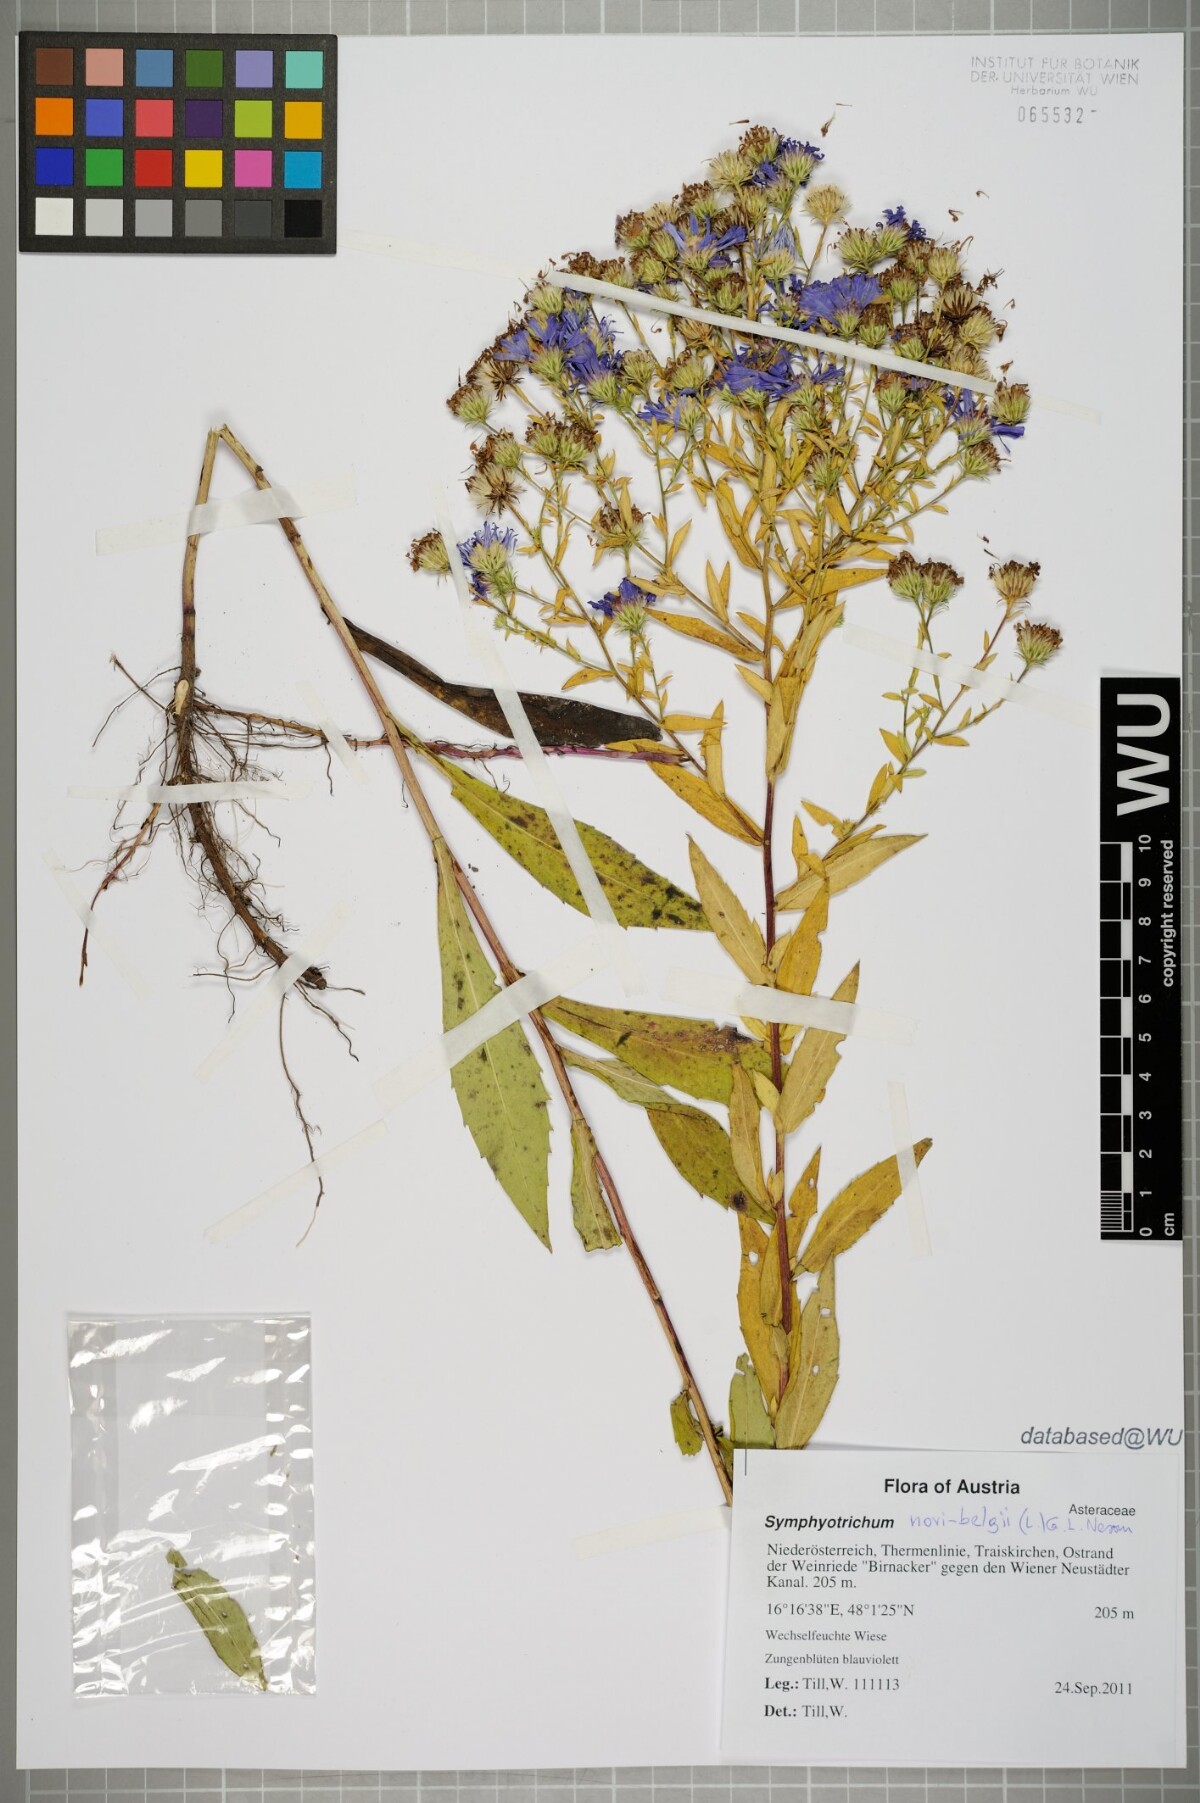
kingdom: Plantae
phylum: Tracheophyta
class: Magnoliopsida
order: Asterales
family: Asteraceae
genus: Symphyotrichum
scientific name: Symphyotrichum novi-belgii
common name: Michaelmas daisy
